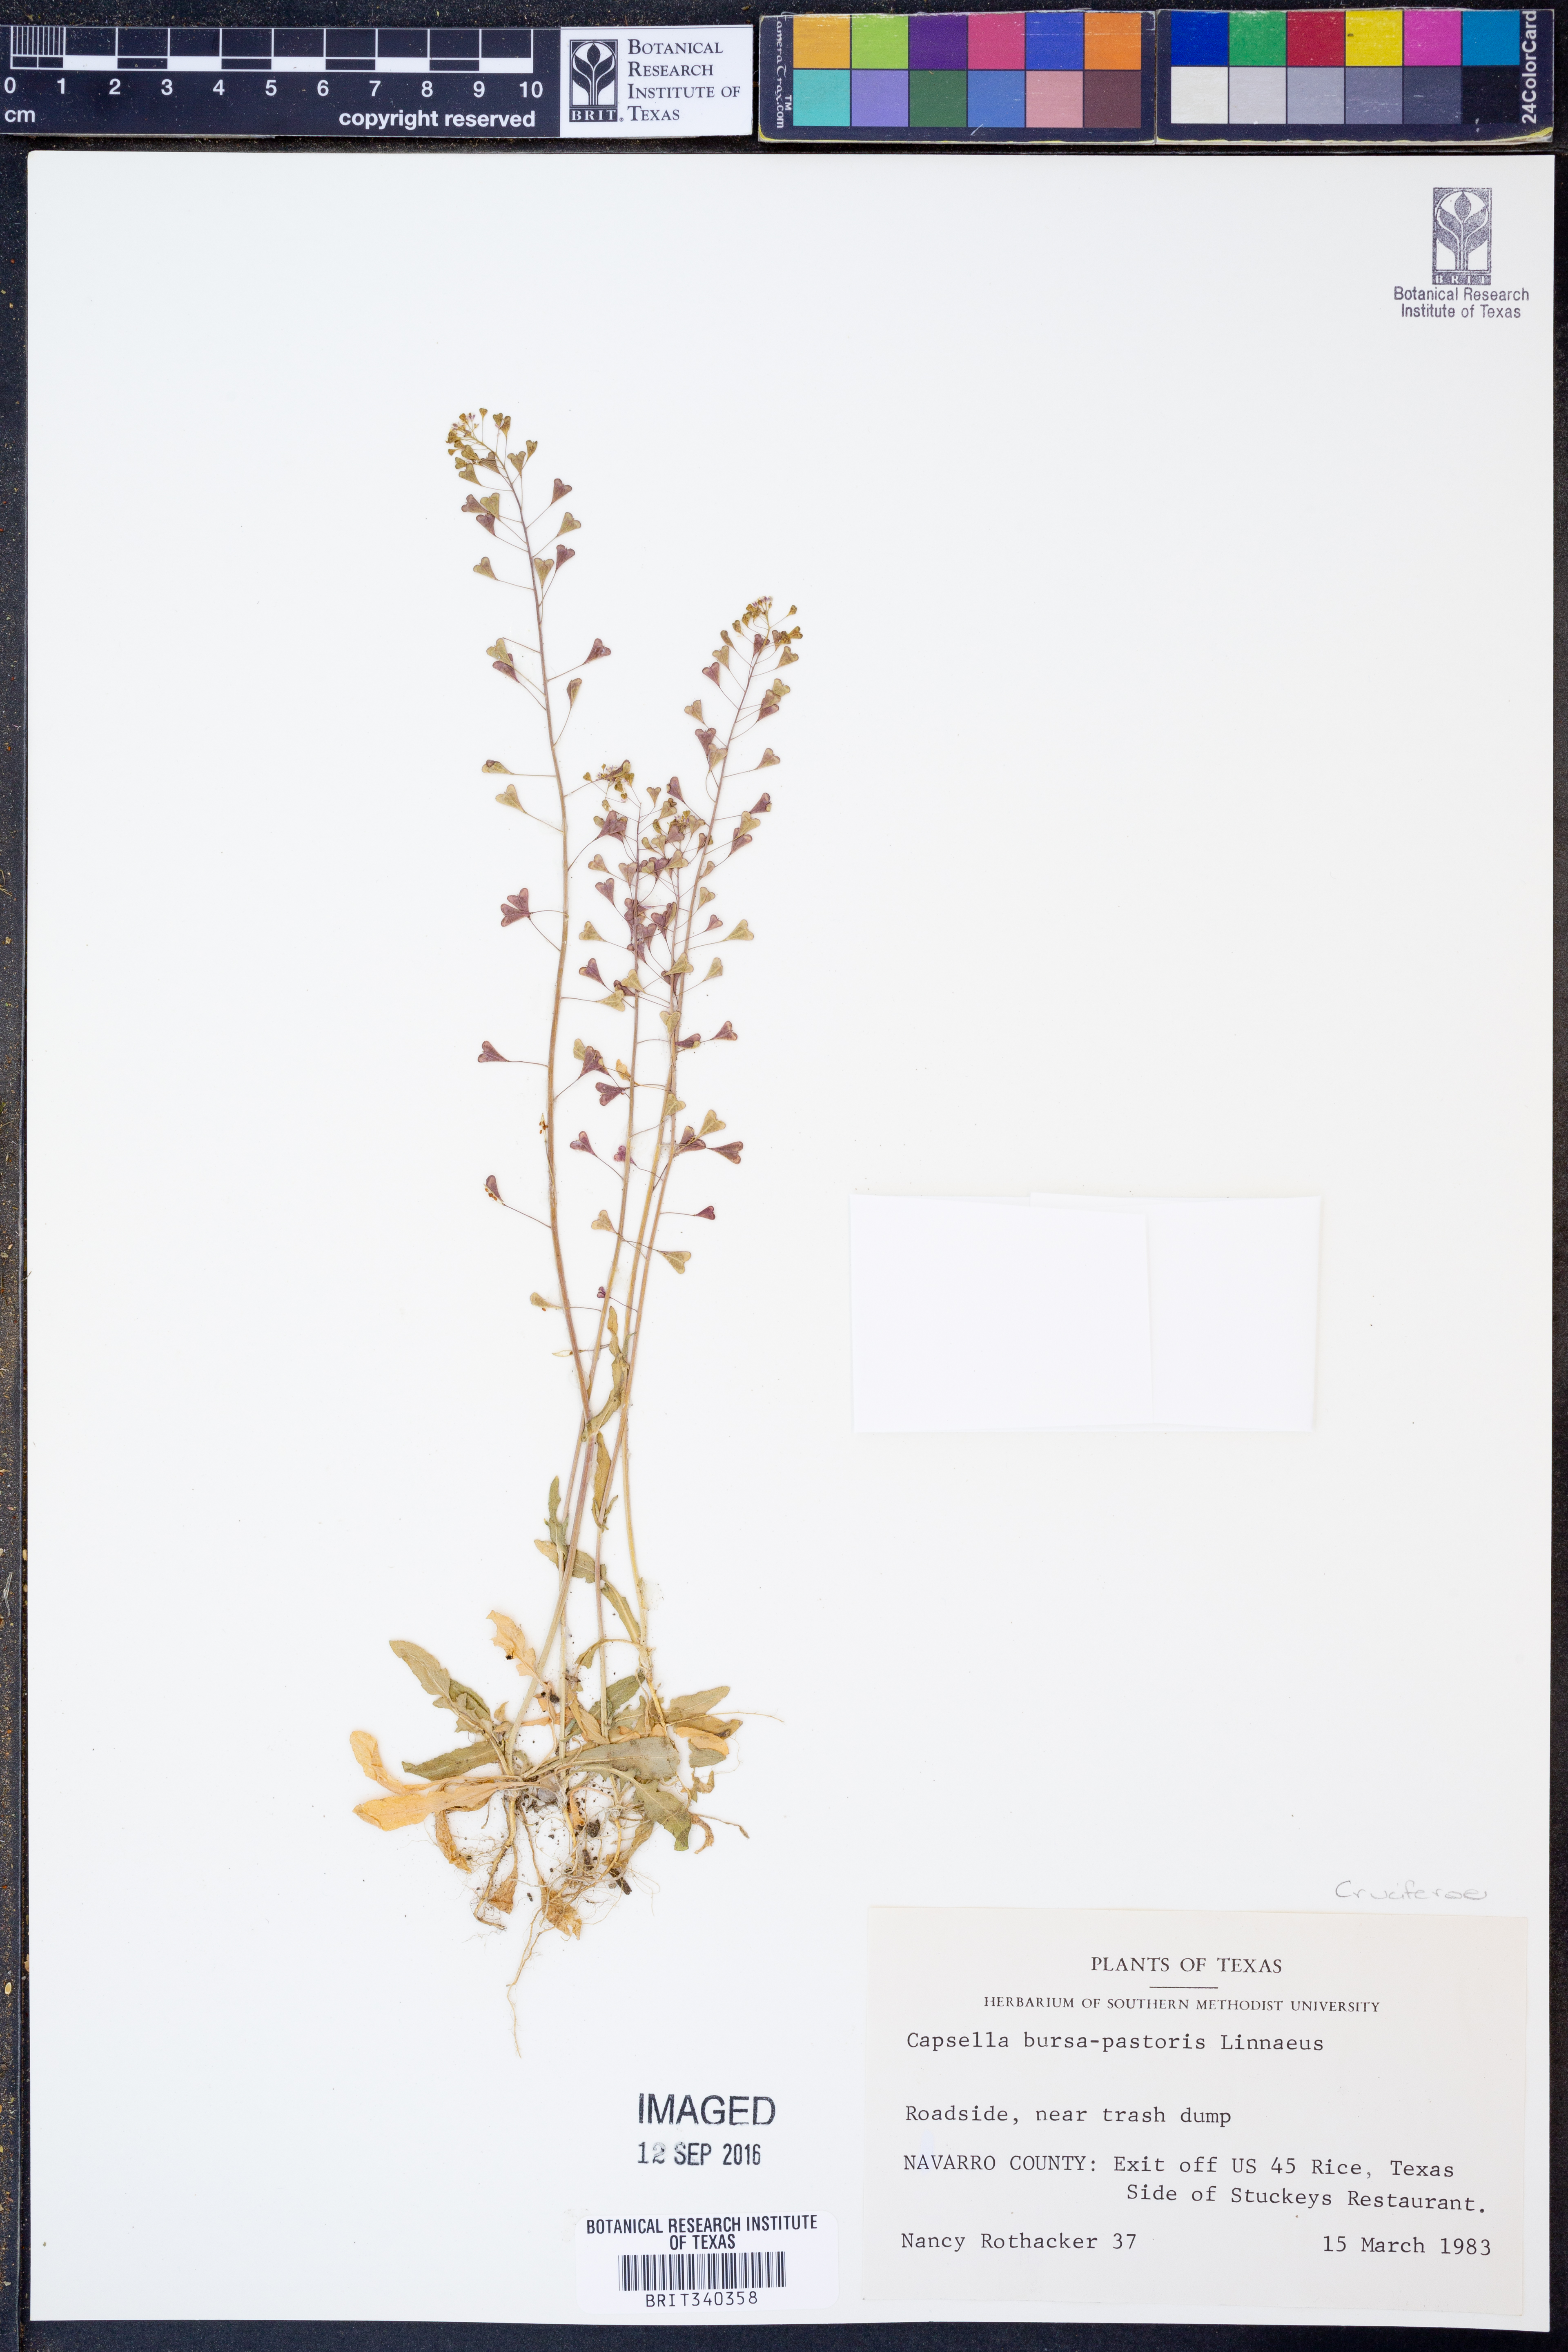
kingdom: Plantae
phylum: Tracheophyta
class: Magnoliopsida
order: Brassicales
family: Brassicaceae
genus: Capsella
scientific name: Capsella bursa-pastoris
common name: Shepherd's purse
